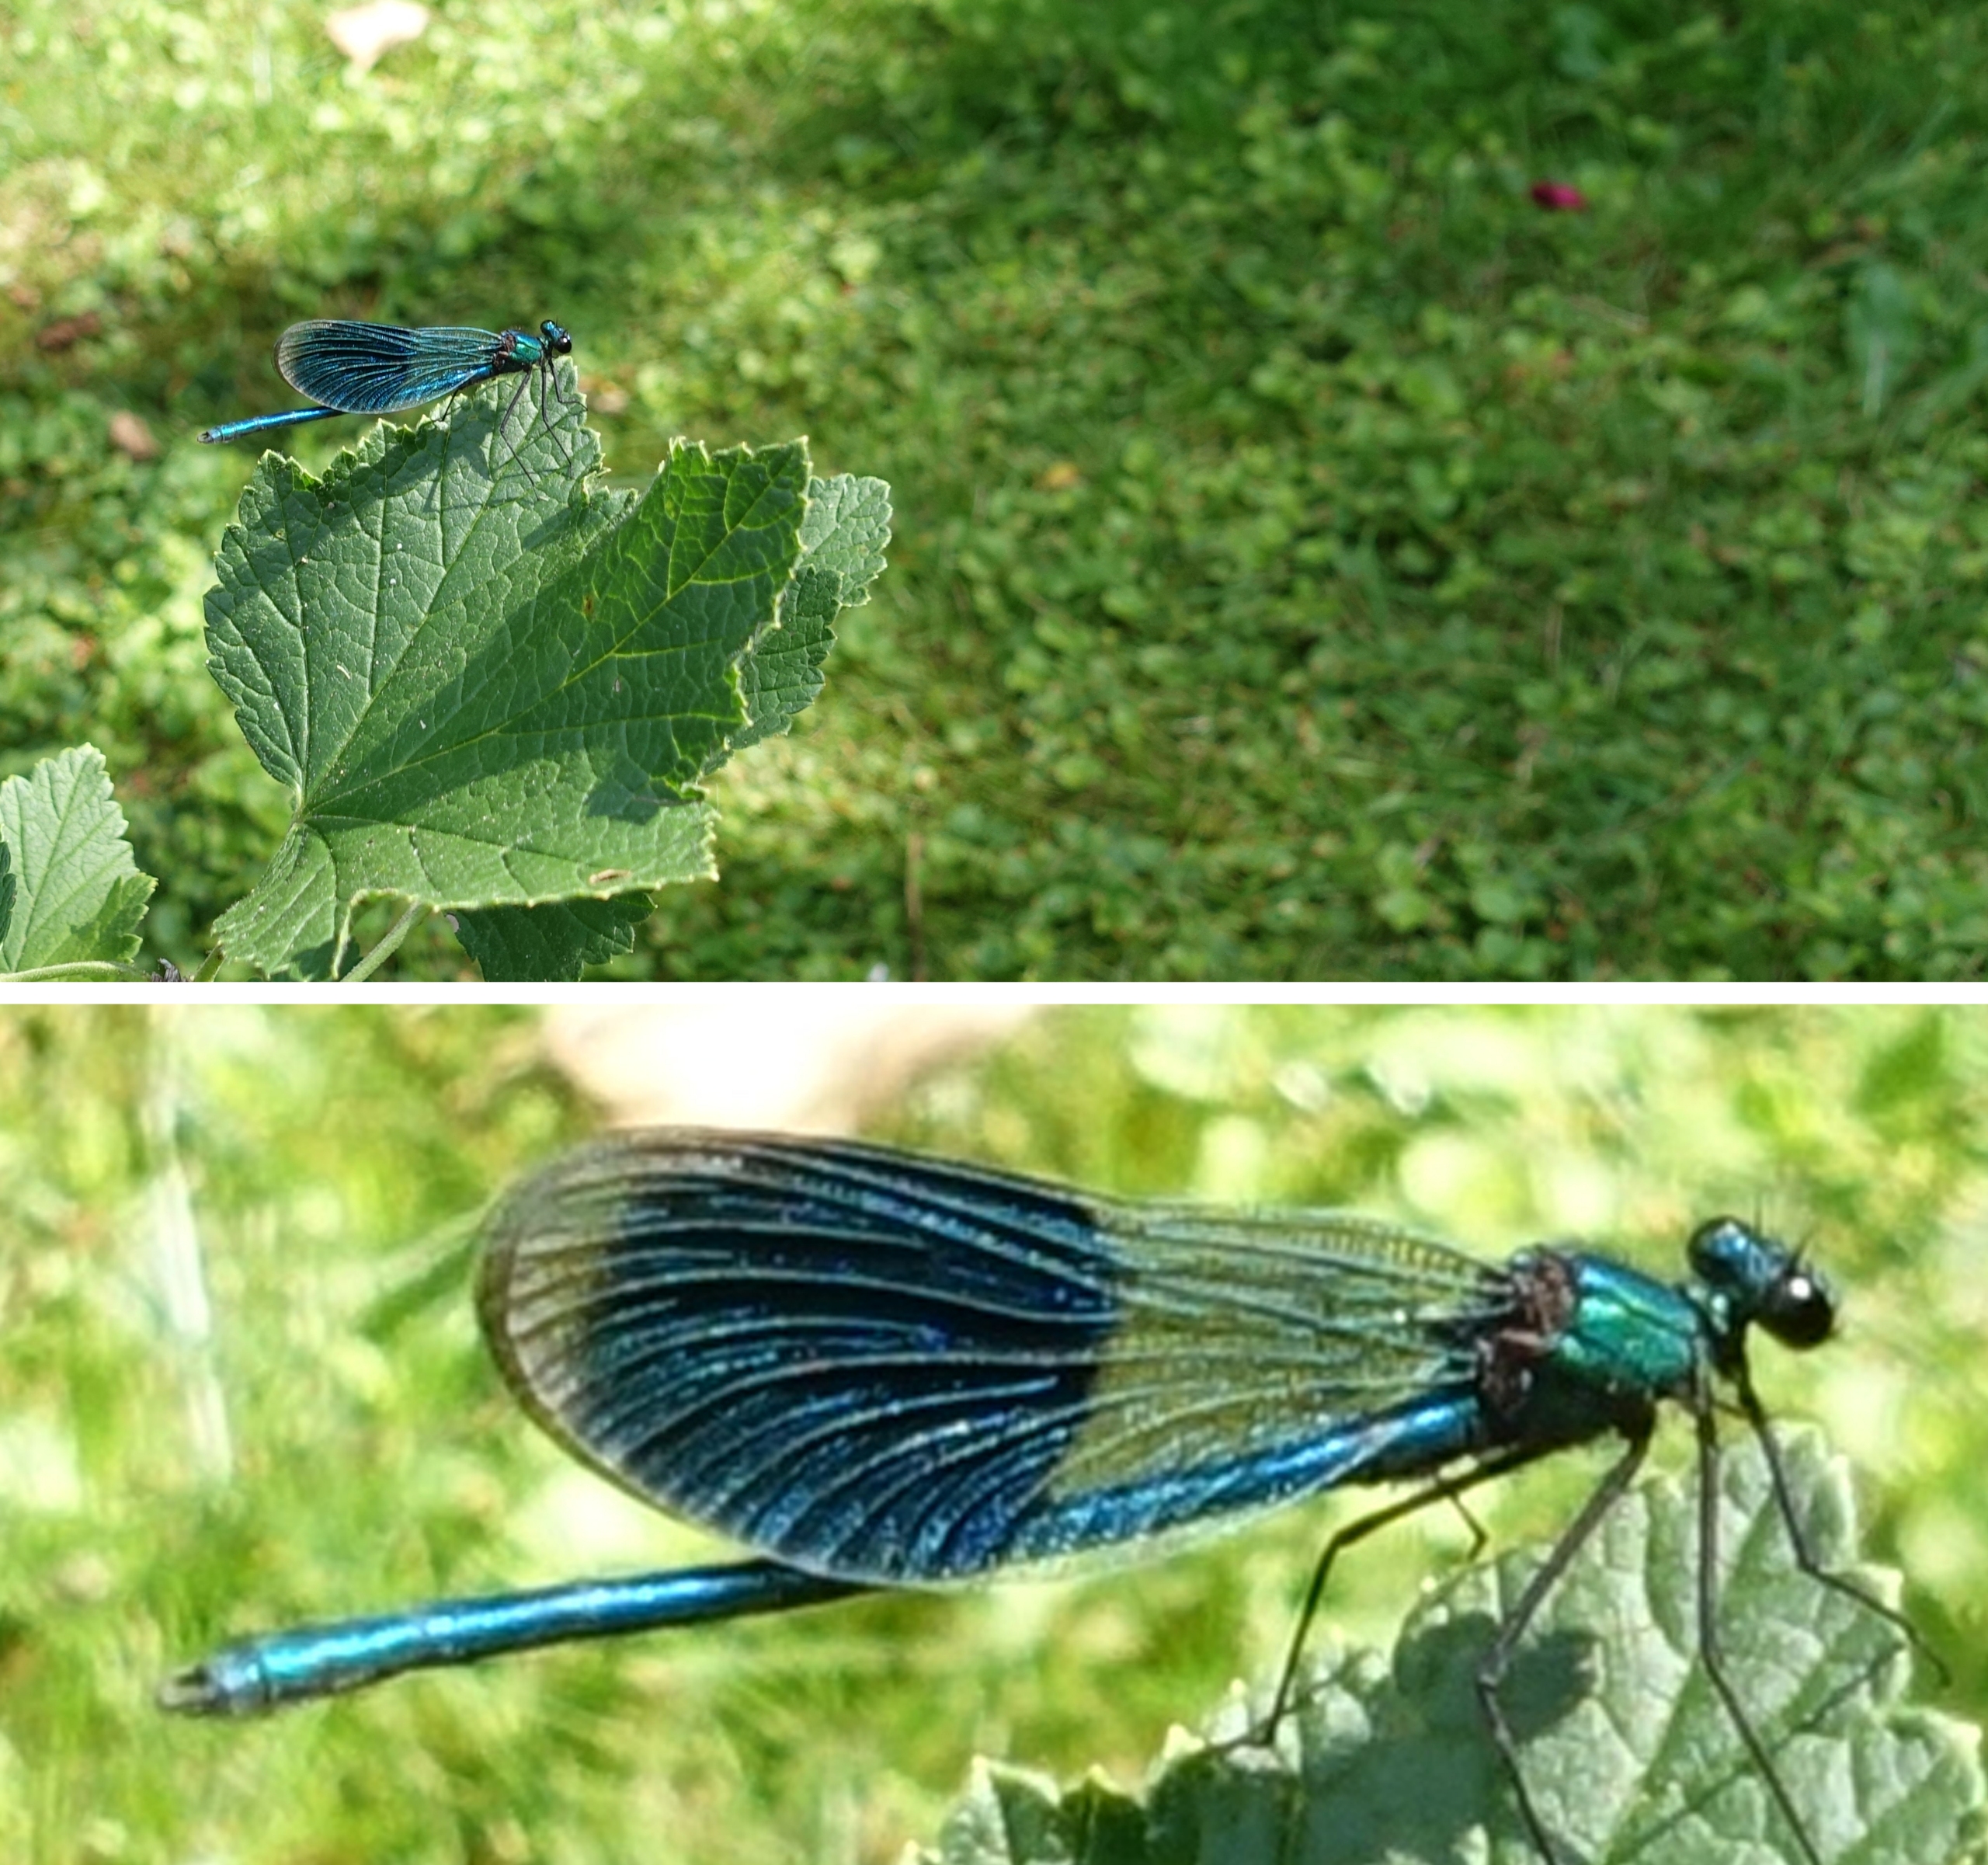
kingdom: Animalia
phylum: Arthropoda
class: Insecta
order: Odonata
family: Calopterygidae
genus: Calopteryx
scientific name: Calopteryx splendens
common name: Blåbåndet pragtvandnymfe
